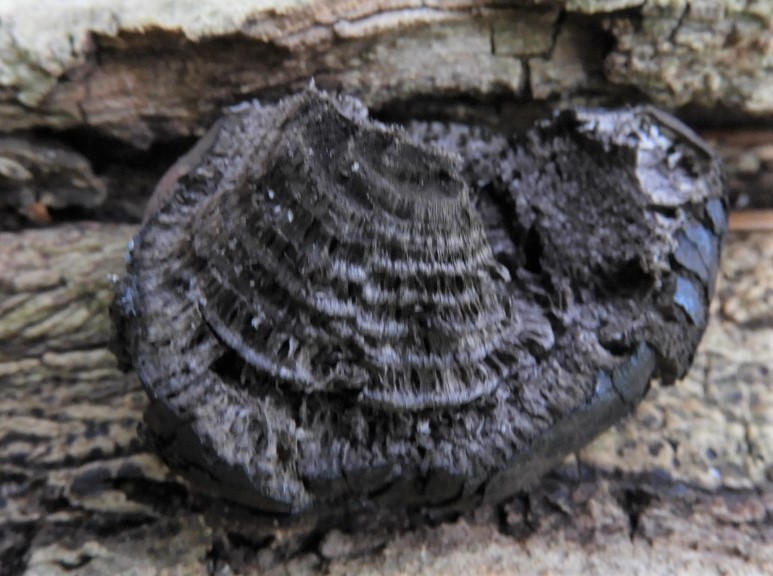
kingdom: Fungi
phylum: Ascomycota
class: Sordariomycetes
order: Xylariales
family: Hypoxylaceae
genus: Daldinia
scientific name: Daldinia concentrica
